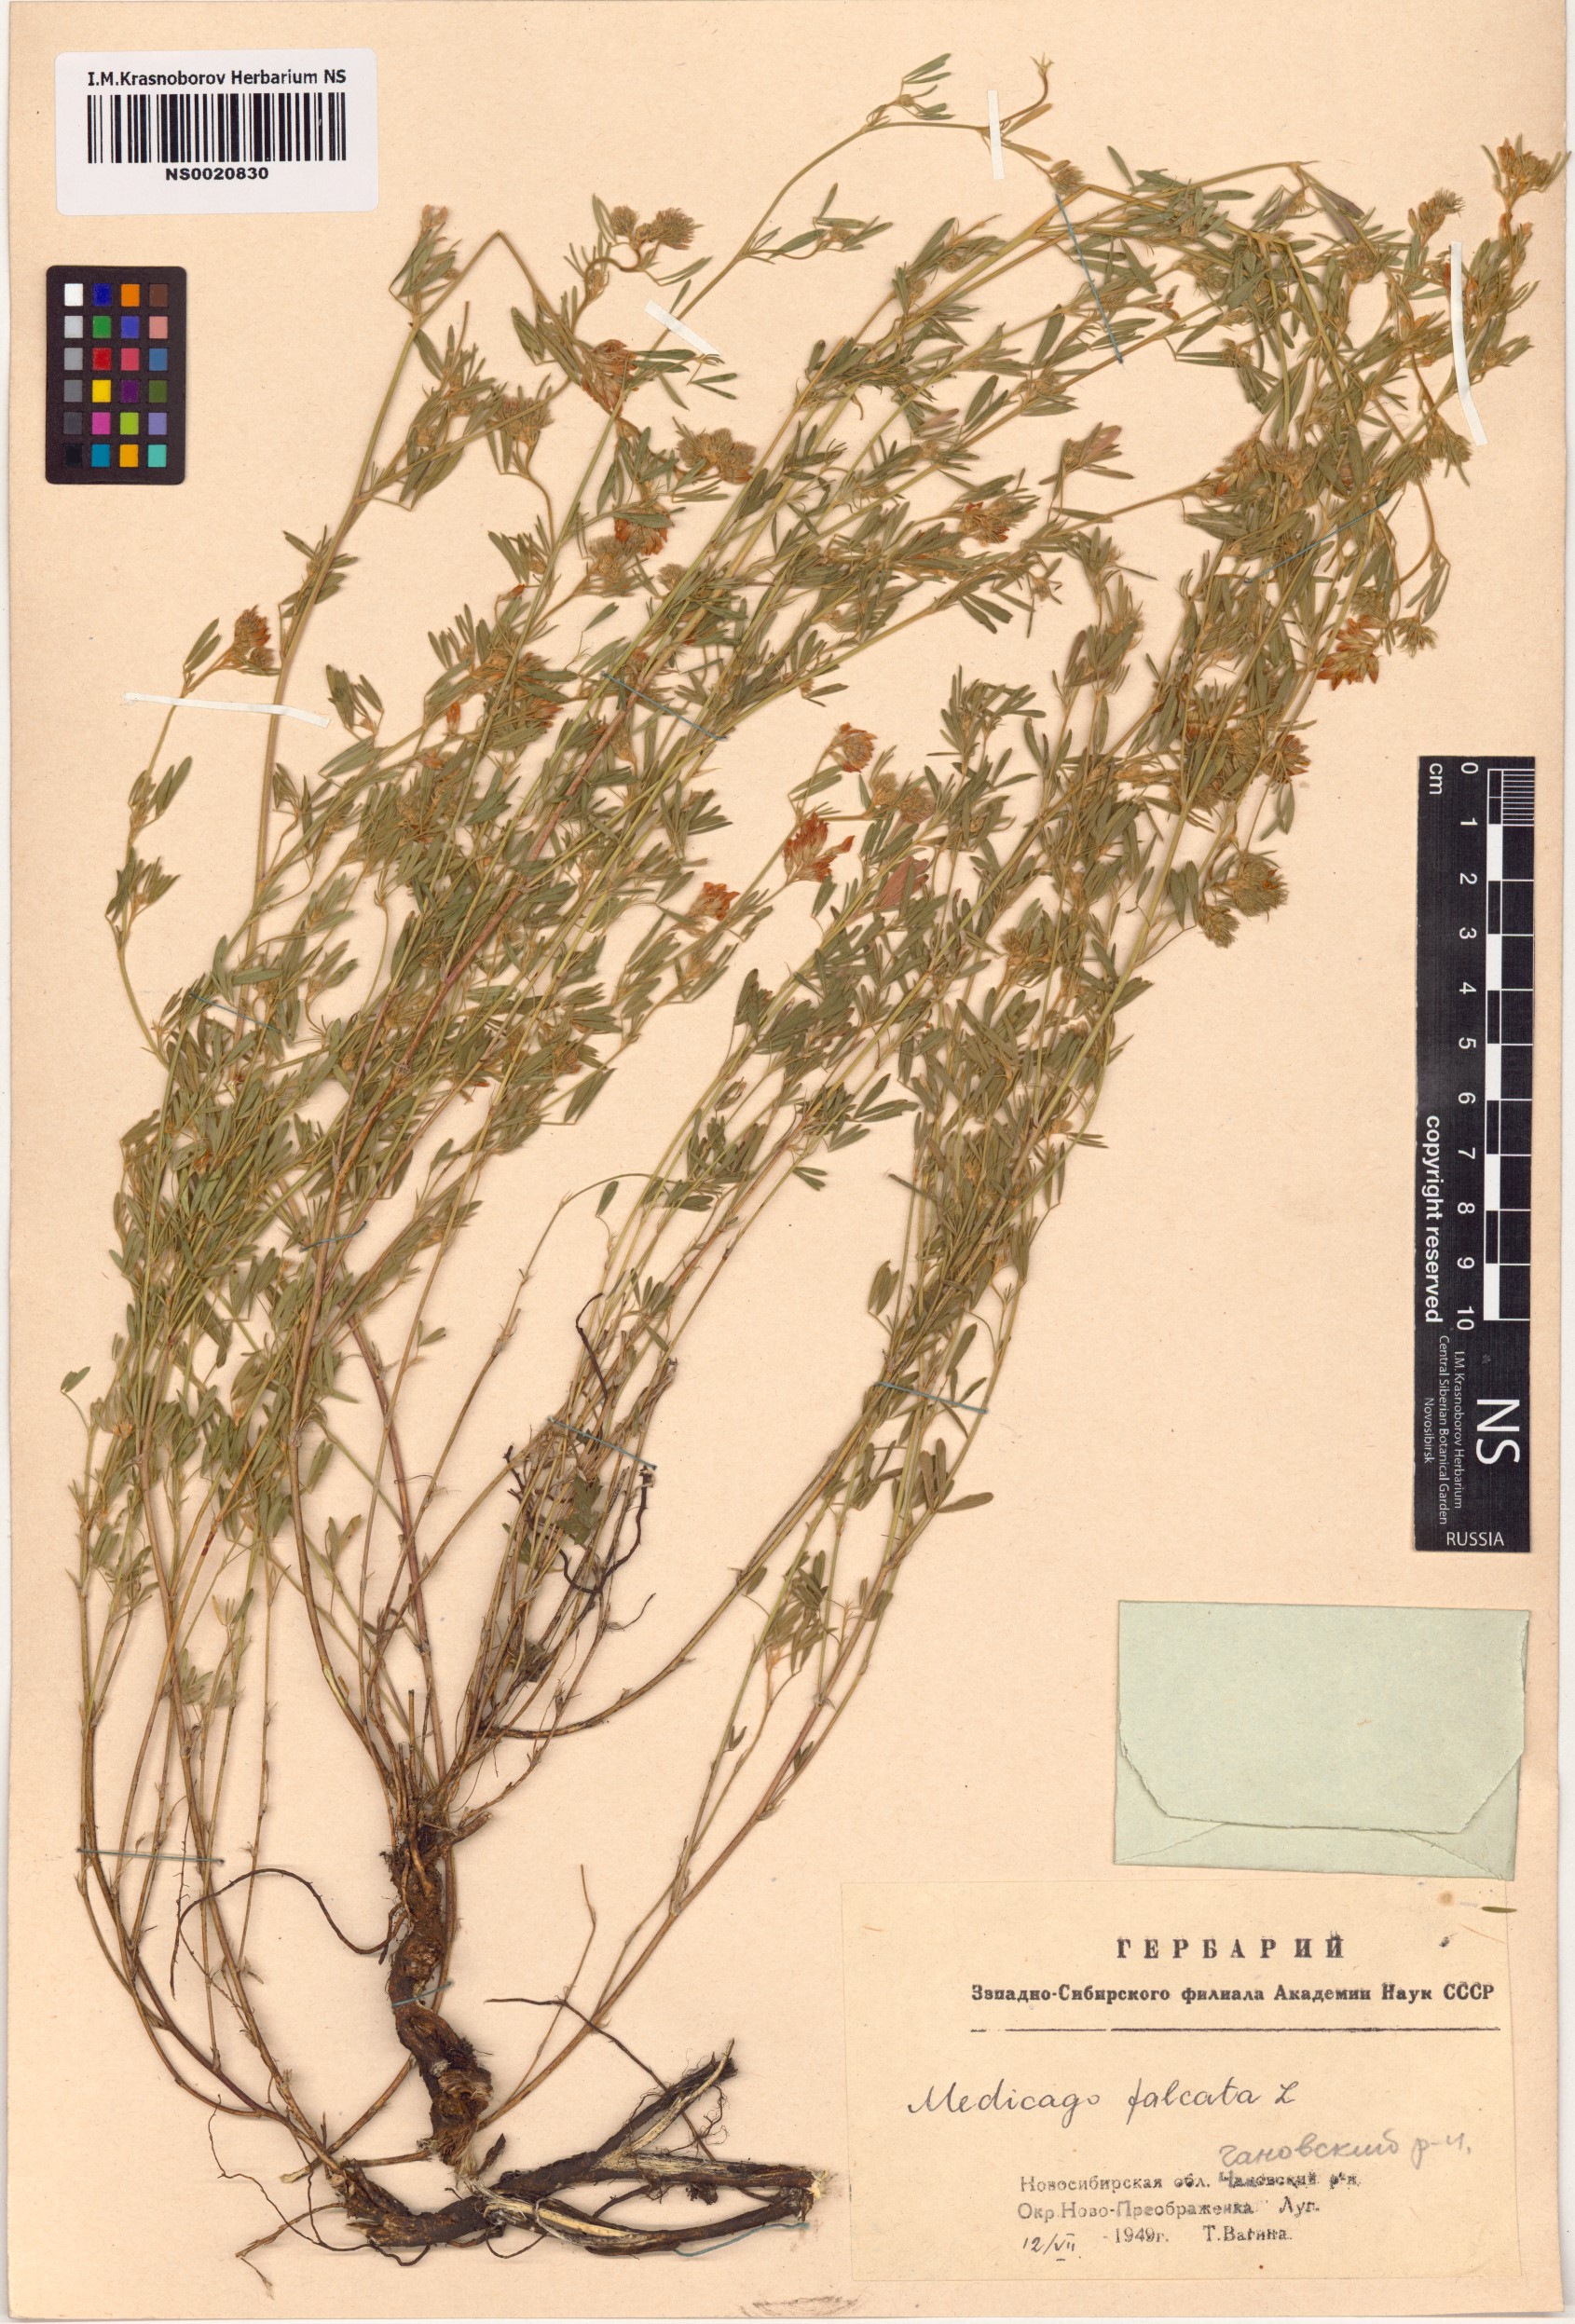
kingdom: Plantae
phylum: Tracheophyta
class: Magnoliopsida
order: Fabales
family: Fabaceae
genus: Medicago
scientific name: Medicago falcata
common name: Sickle medick
